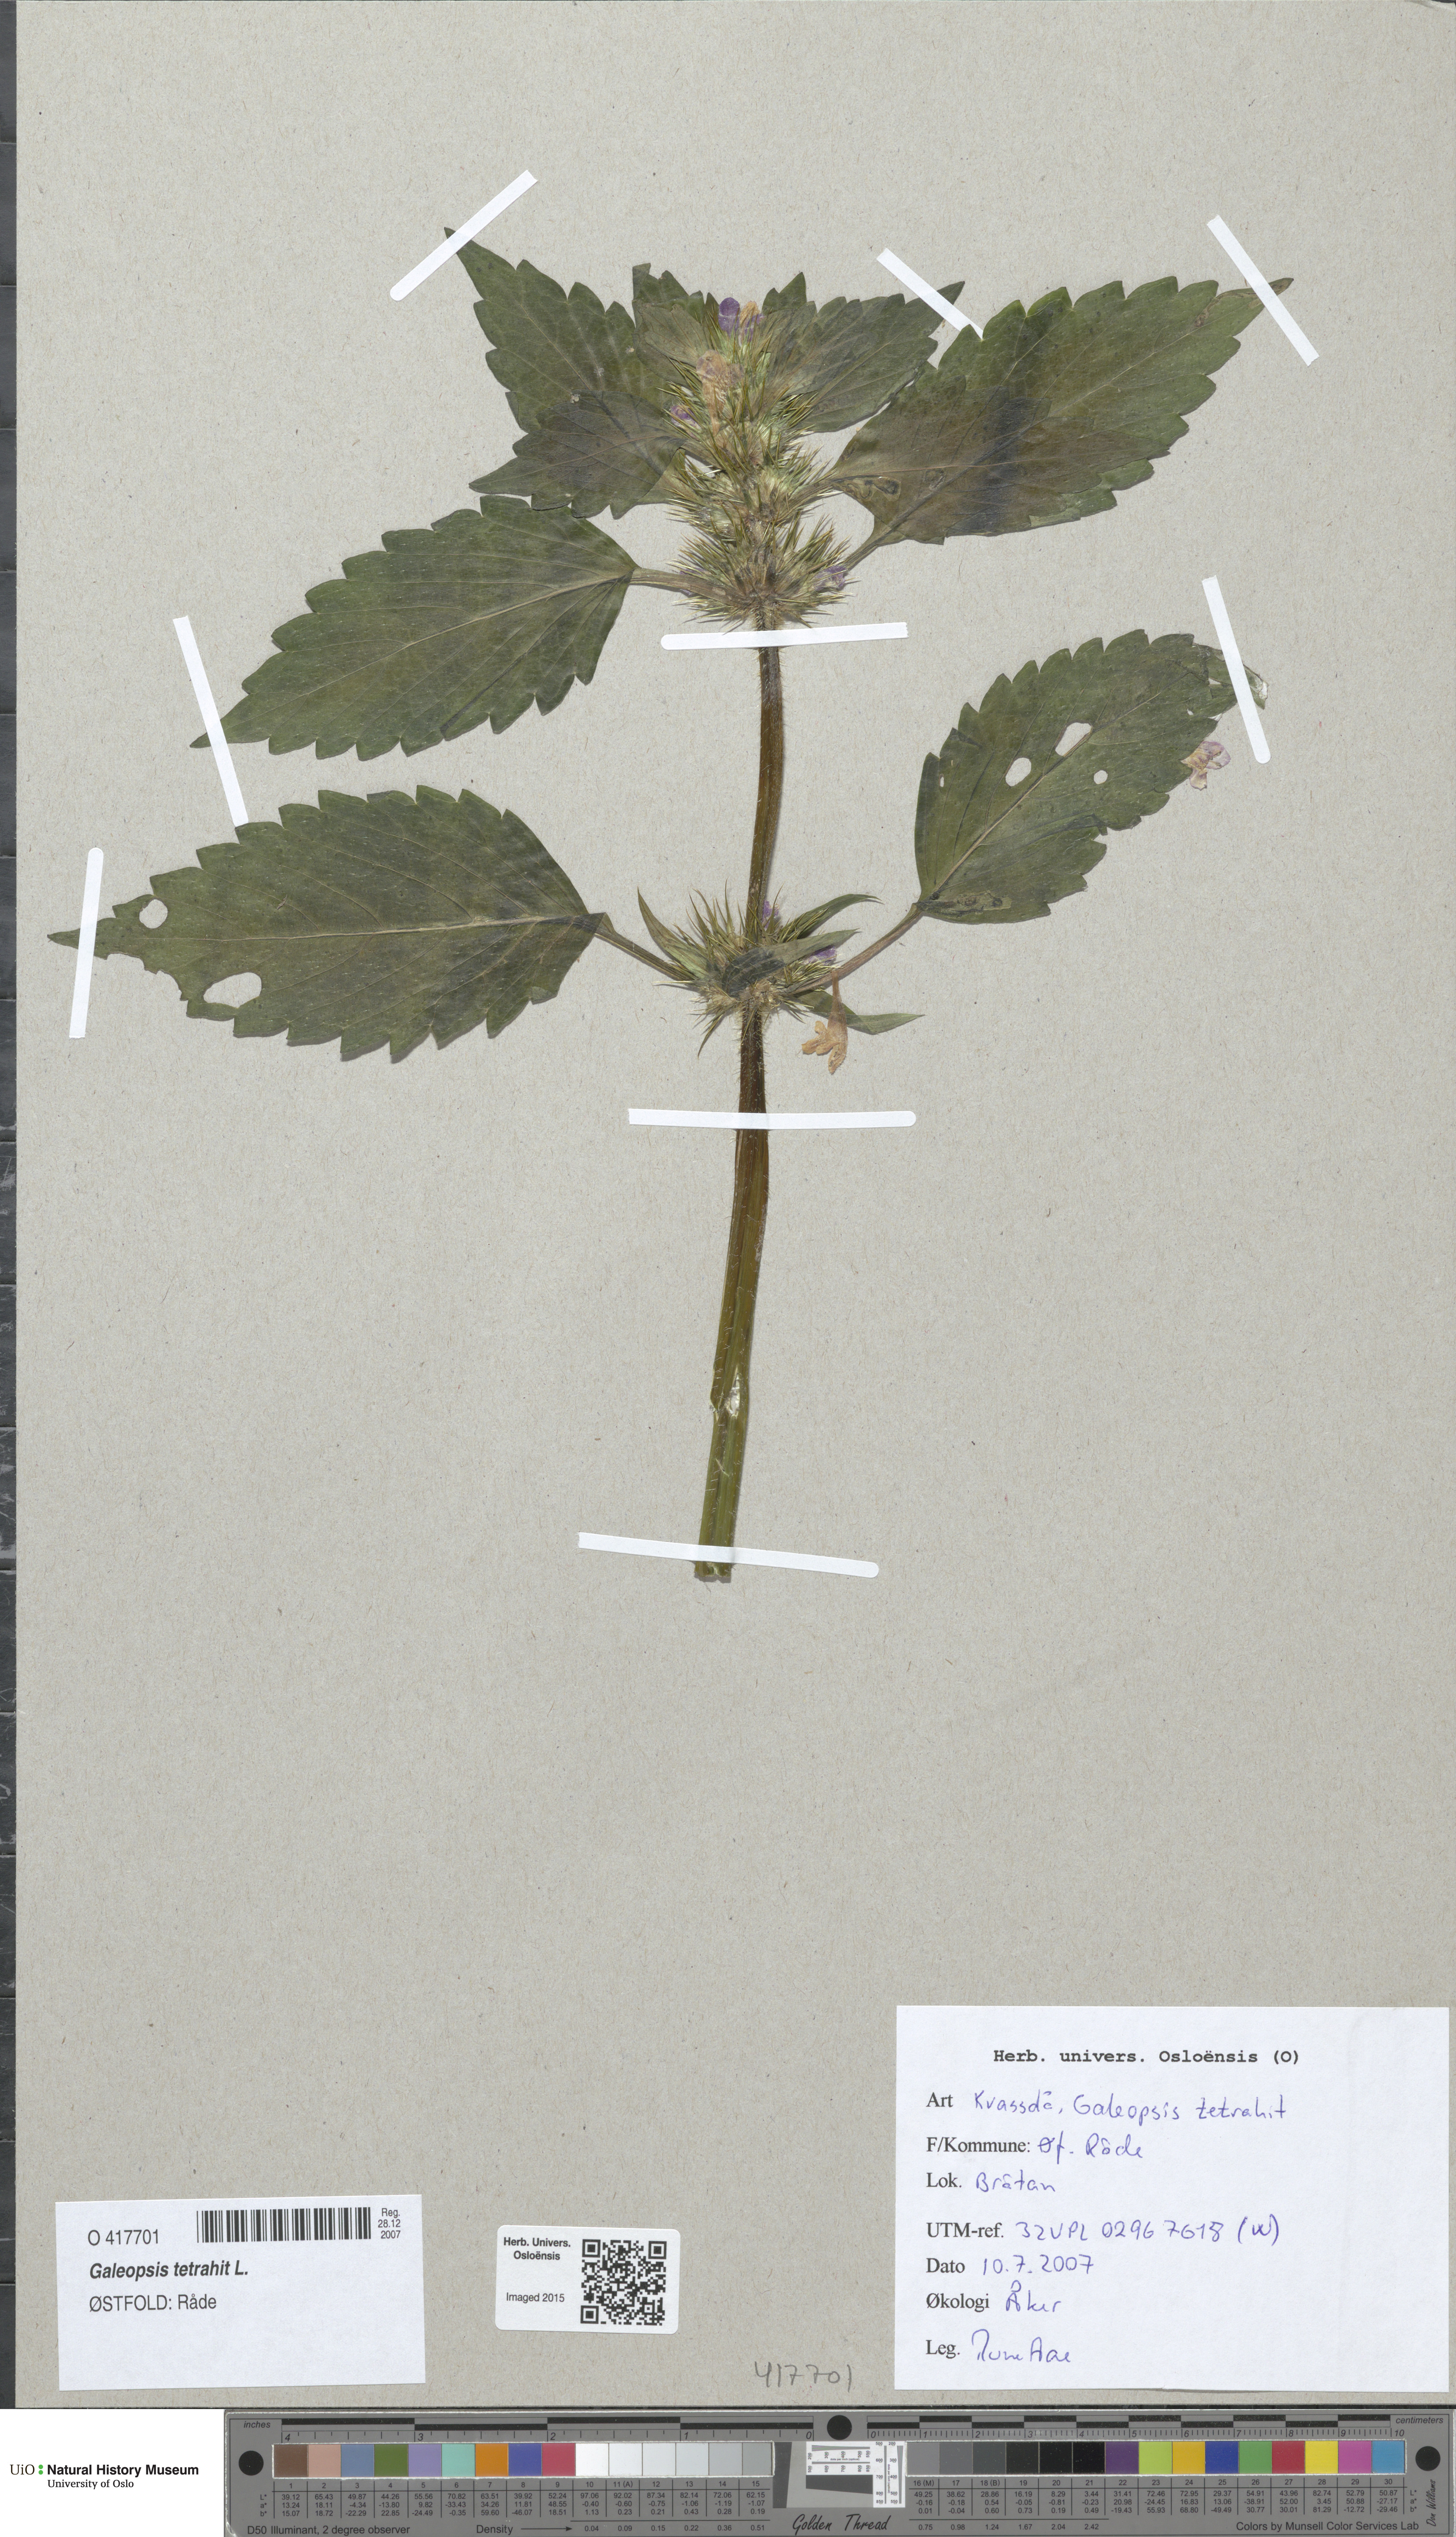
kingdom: Plantae
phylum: Tracheophyta
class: Magnoliopsida
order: Lamiales
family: Lamiaceae
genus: Galeopsis
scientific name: Galeopsis tetrahit
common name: Common hemp-nettle
